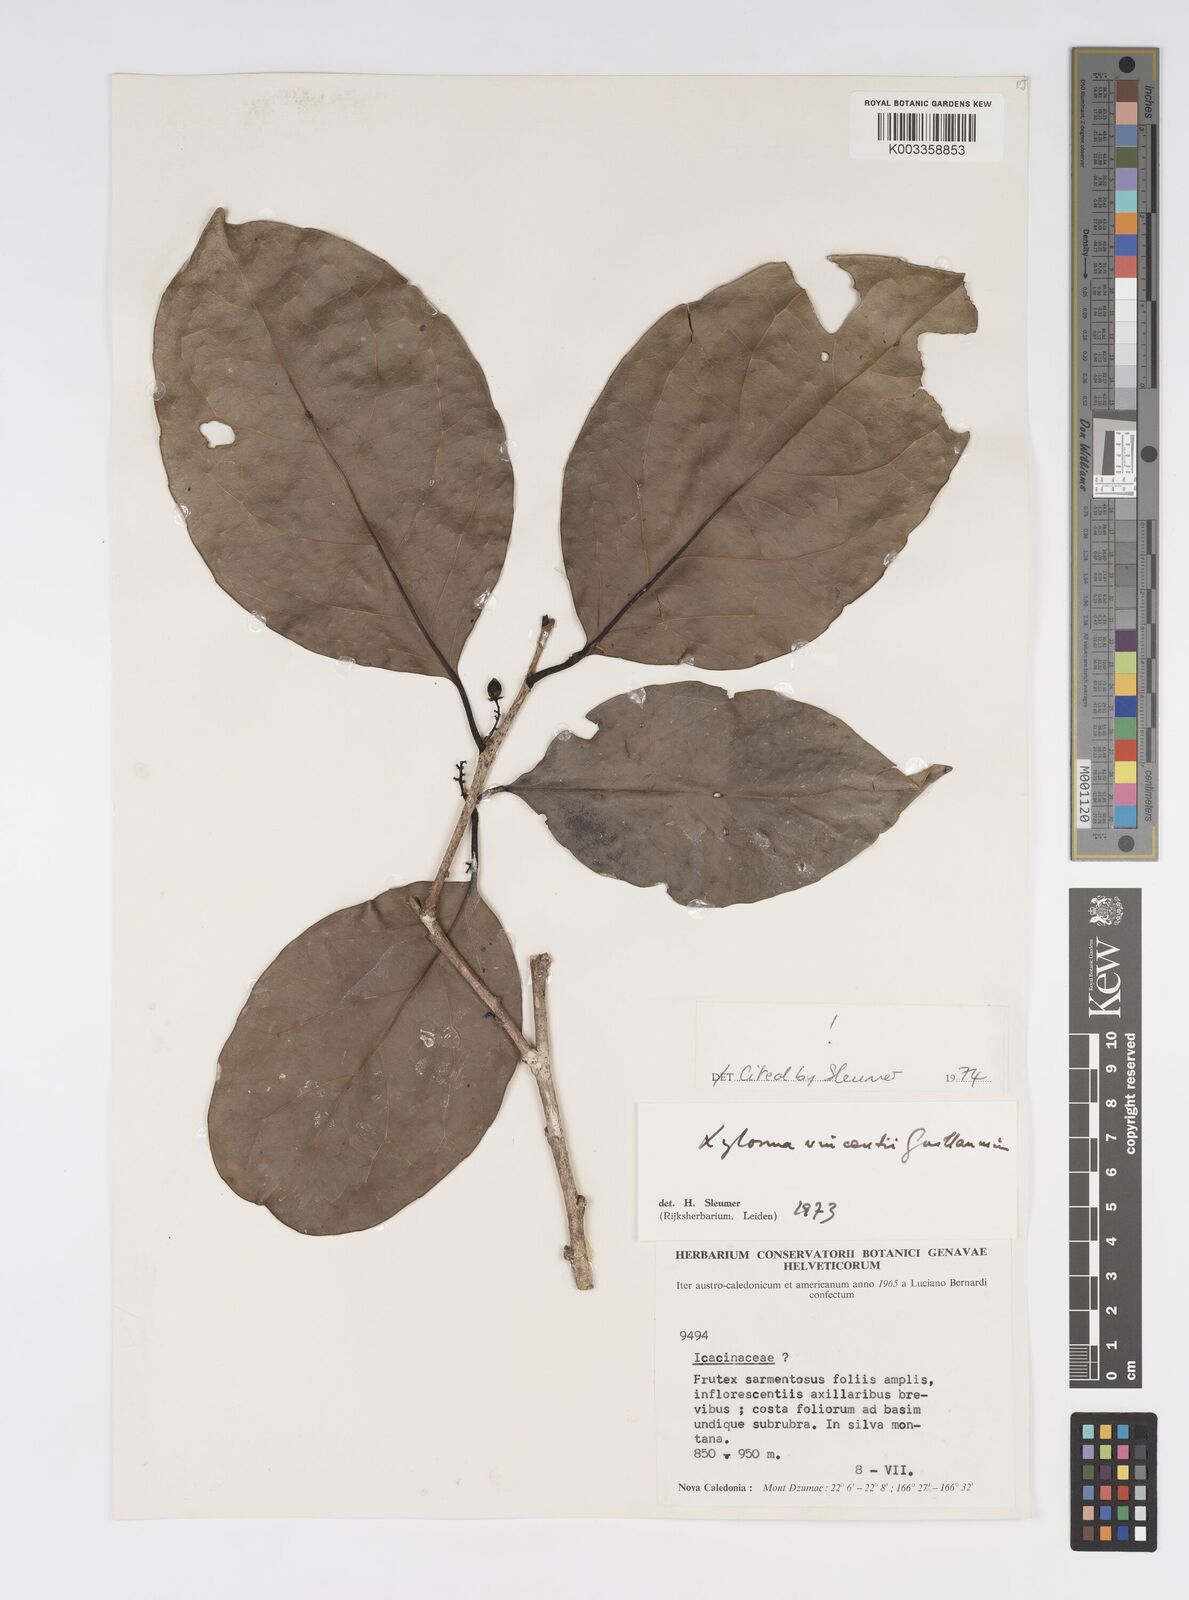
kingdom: Plantae
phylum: Tracheophyta
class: Magnoliopsida
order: Malpighiales
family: Salicaceae
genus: Xylosma
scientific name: Xylosma vincentii
